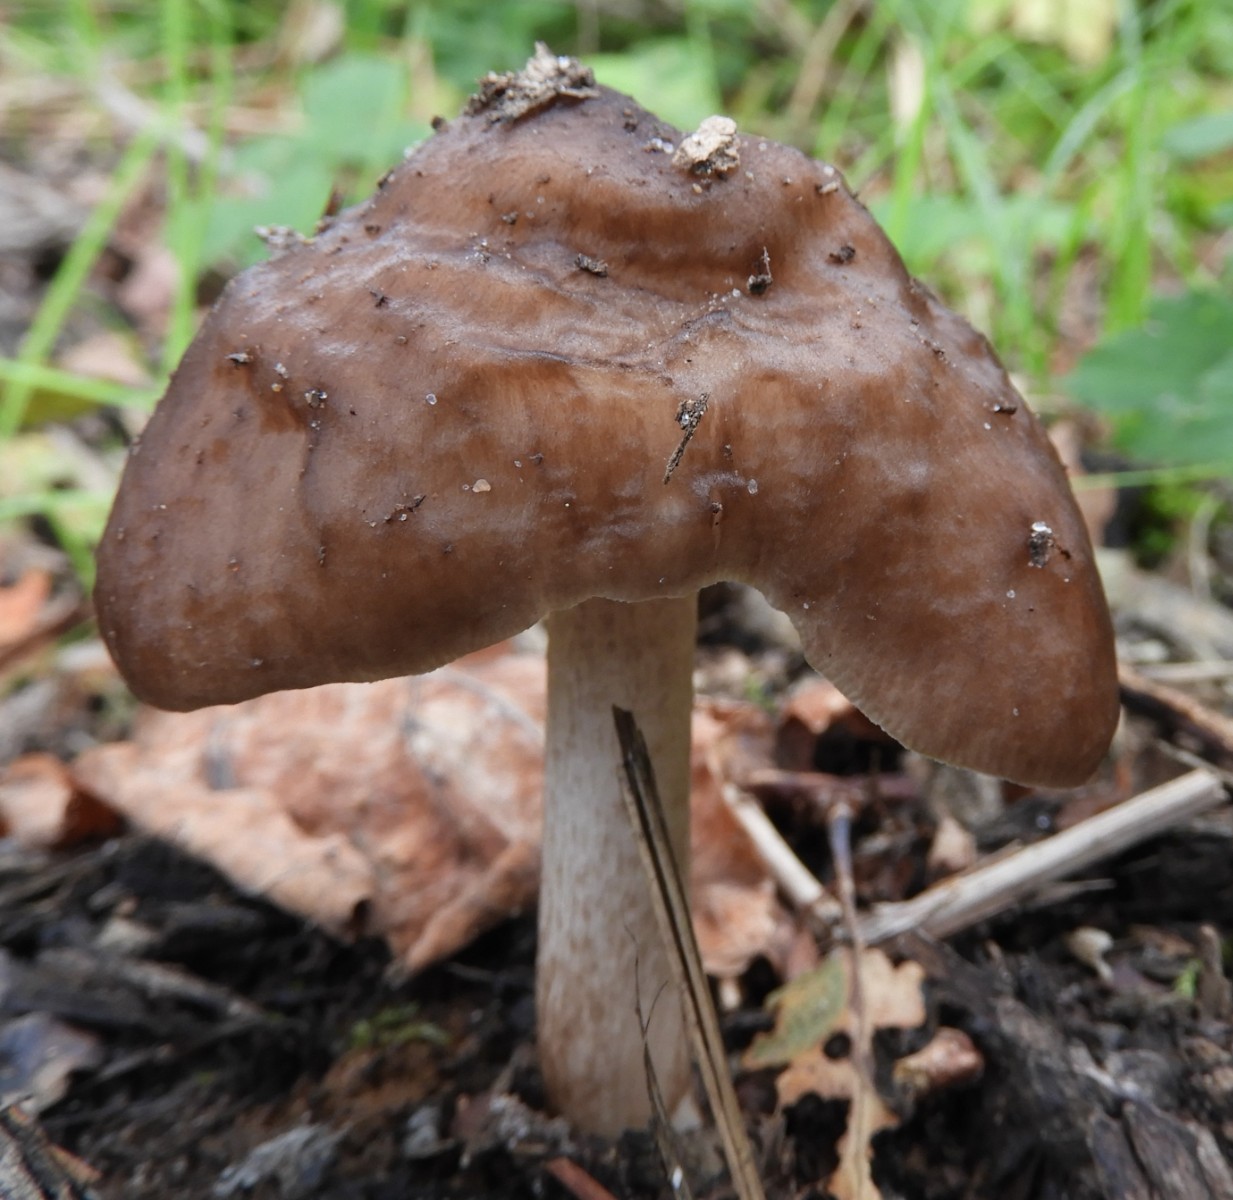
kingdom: Fungi
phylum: Basidiomycota
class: Agaricomycetes
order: Agaricales
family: Pluteaceae
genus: Pluteus
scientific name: Pluteus cervinus
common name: sodfarvet skærmhat
